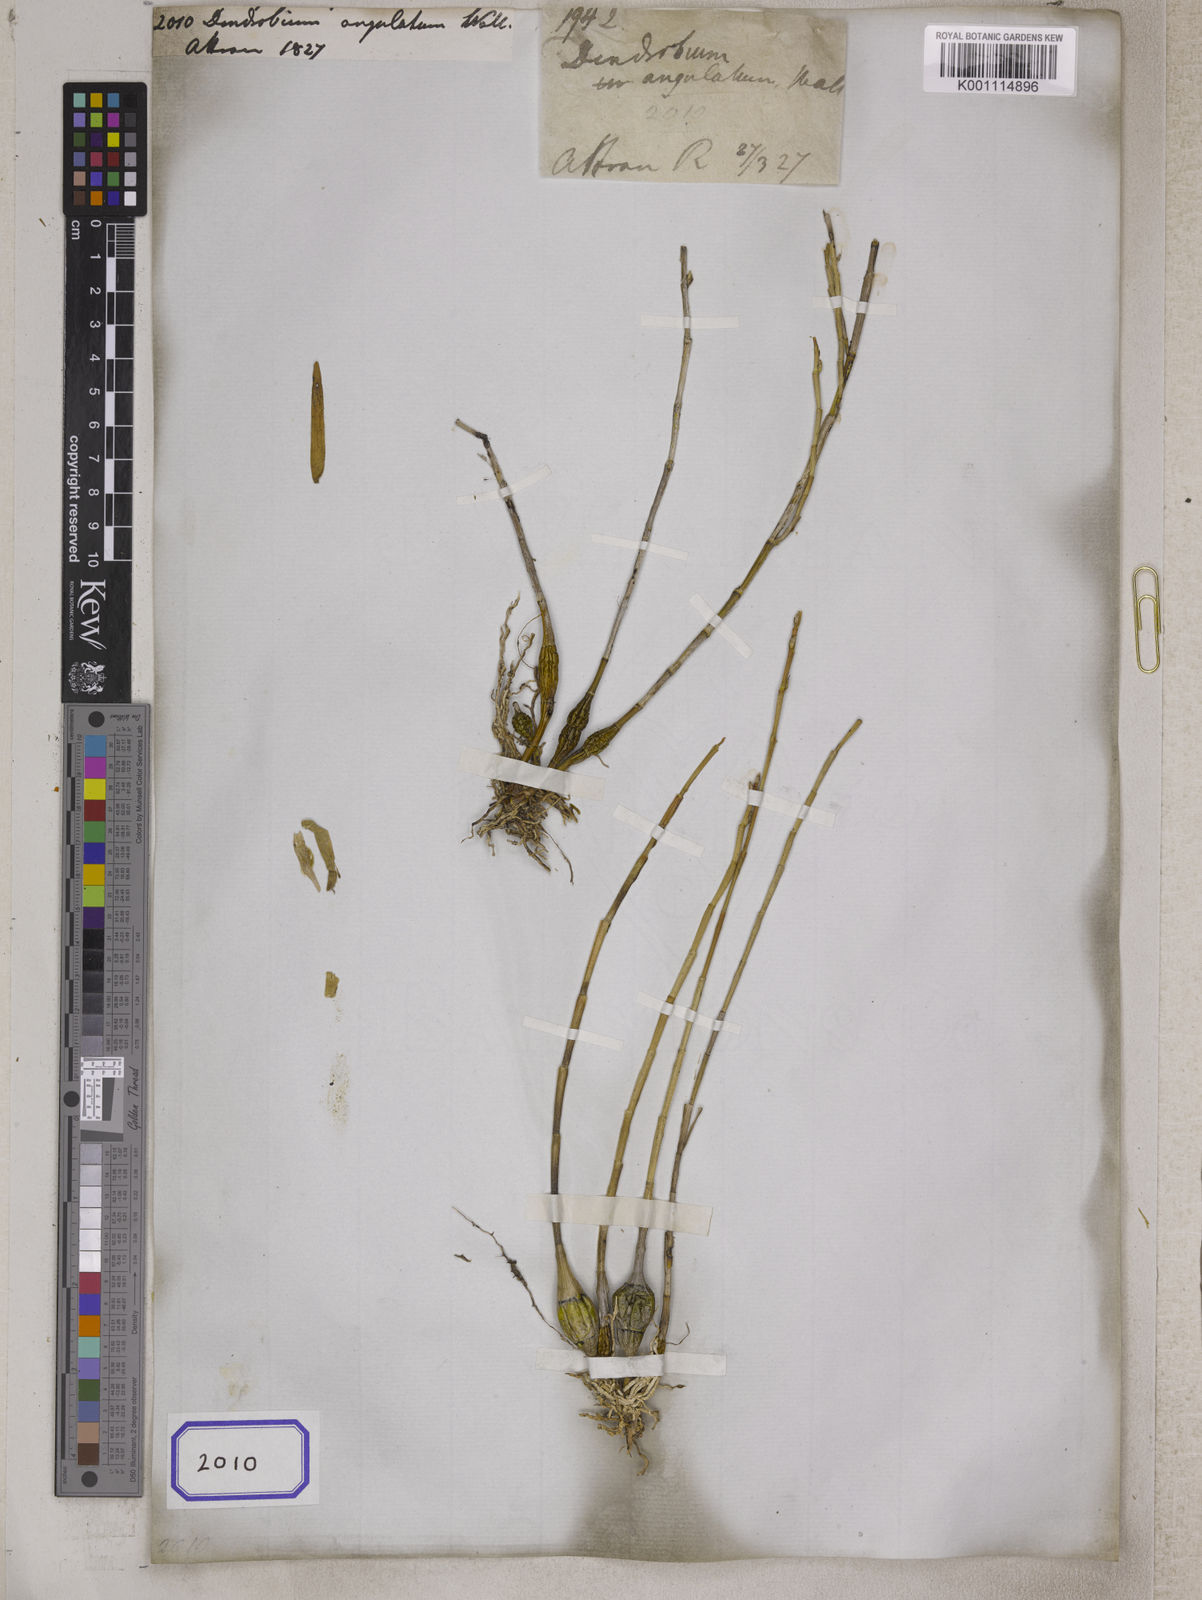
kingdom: Plantae
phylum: Tracheophyta
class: Liliopsida
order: Asparagales
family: Orchidaceae
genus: Dendrobium
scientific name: Dendrobium
